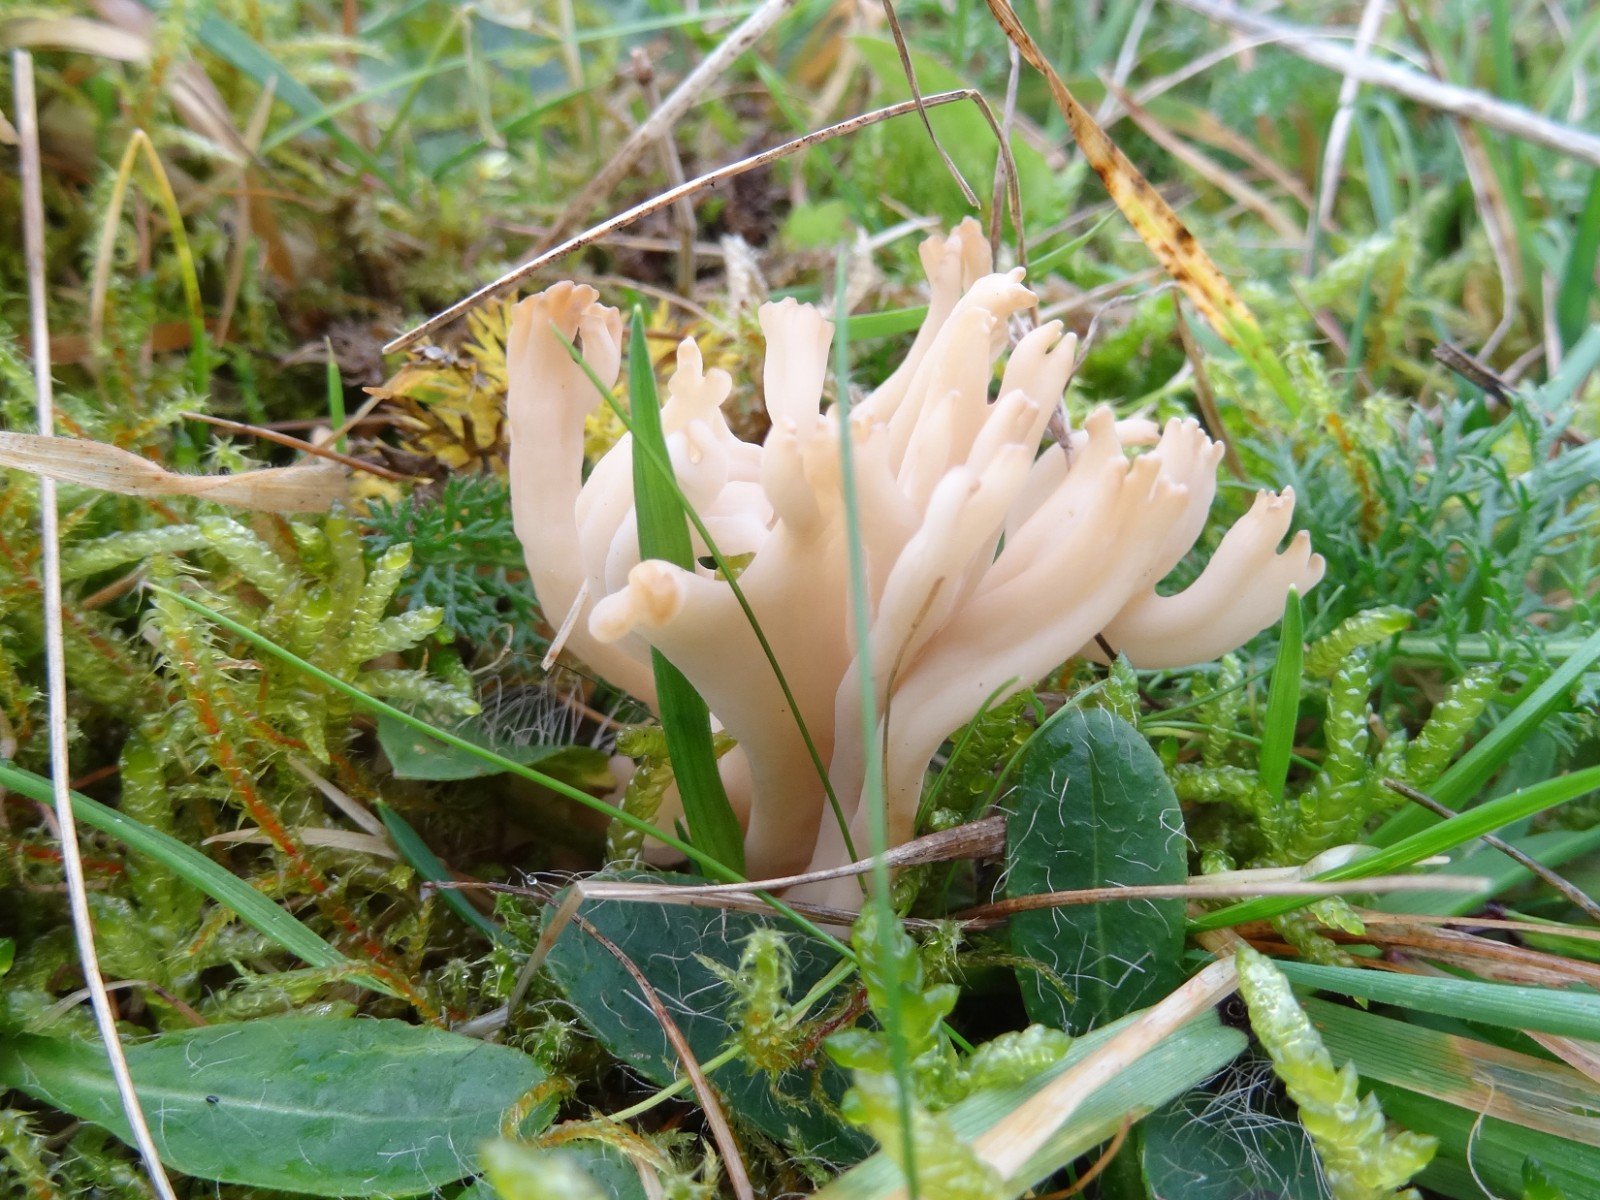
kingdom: Fungi
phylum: Basidiomycota
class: Agaricomycetes
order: Agaricales
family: Clavariaceae
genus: Clavulinopsis
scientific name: Clavulinopsis umbrinella
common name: gulgrå køllesvamp
